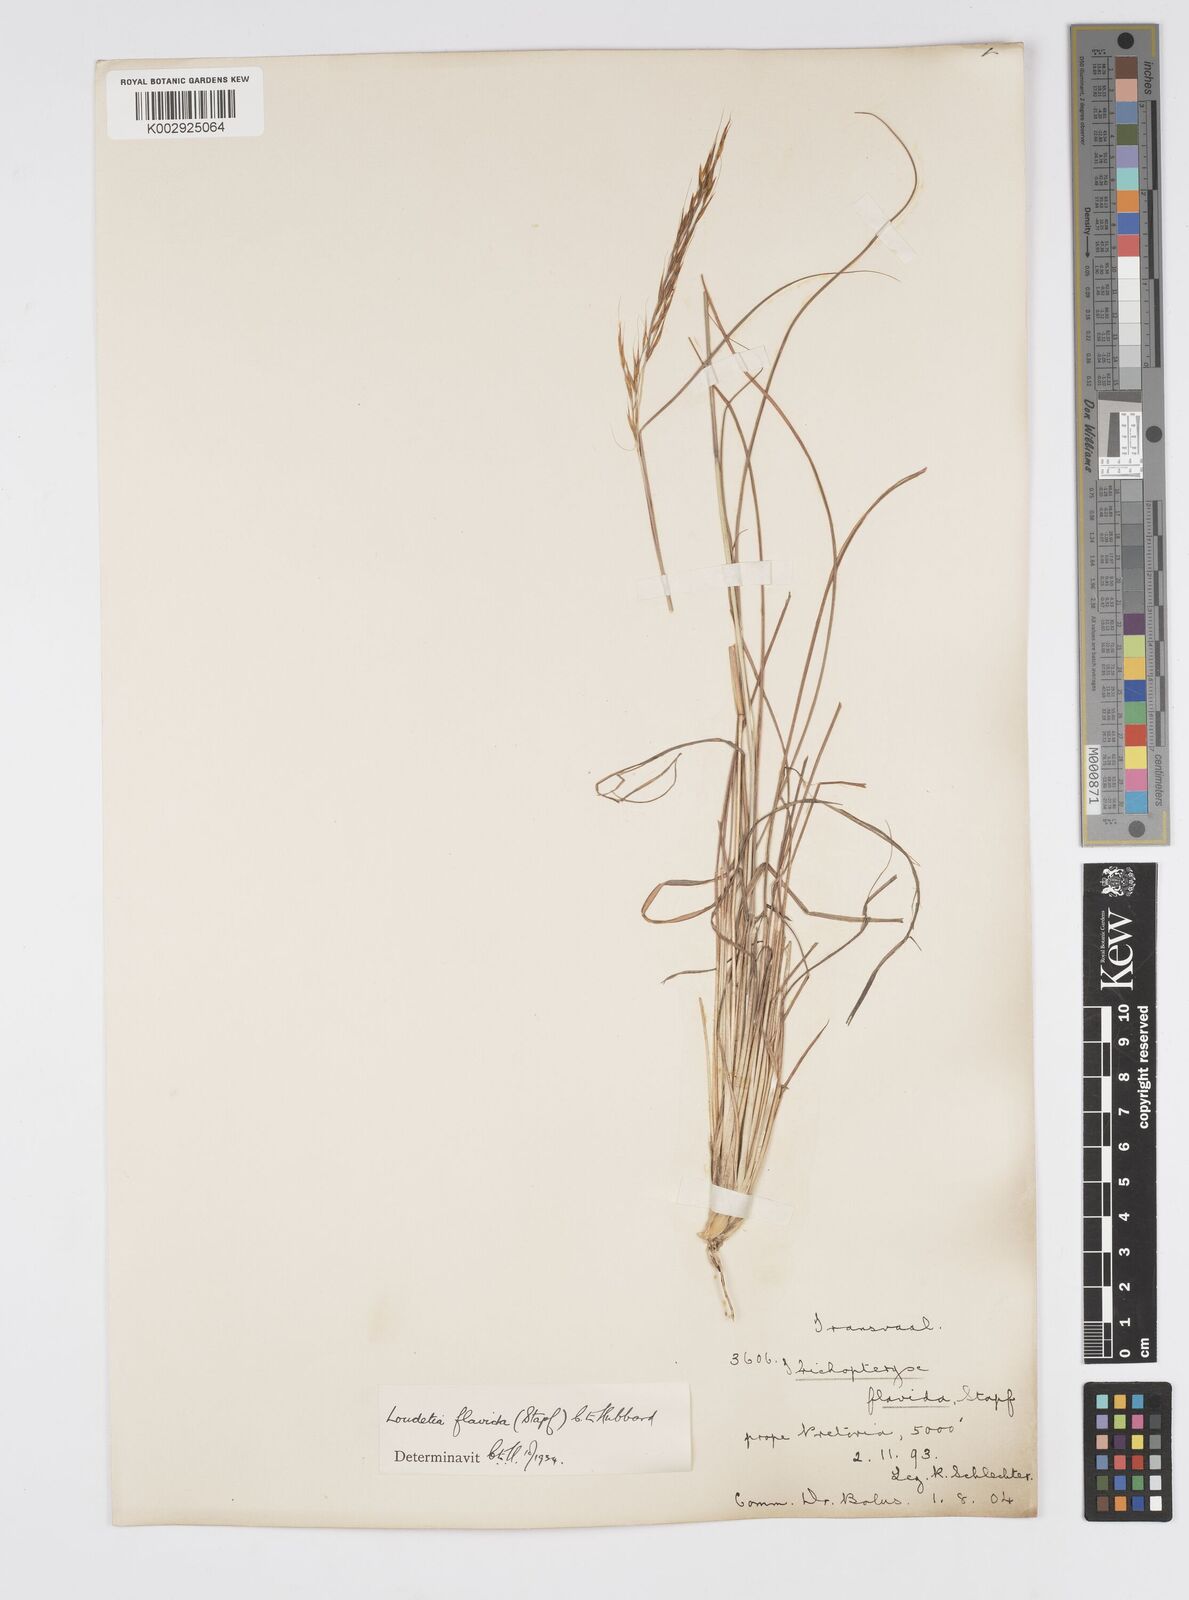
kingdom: Plantae
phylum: Tracheophyta
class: Liliopsida
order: Poales
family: Poaceae
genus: Loudetia
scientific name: Loudetia flavida
